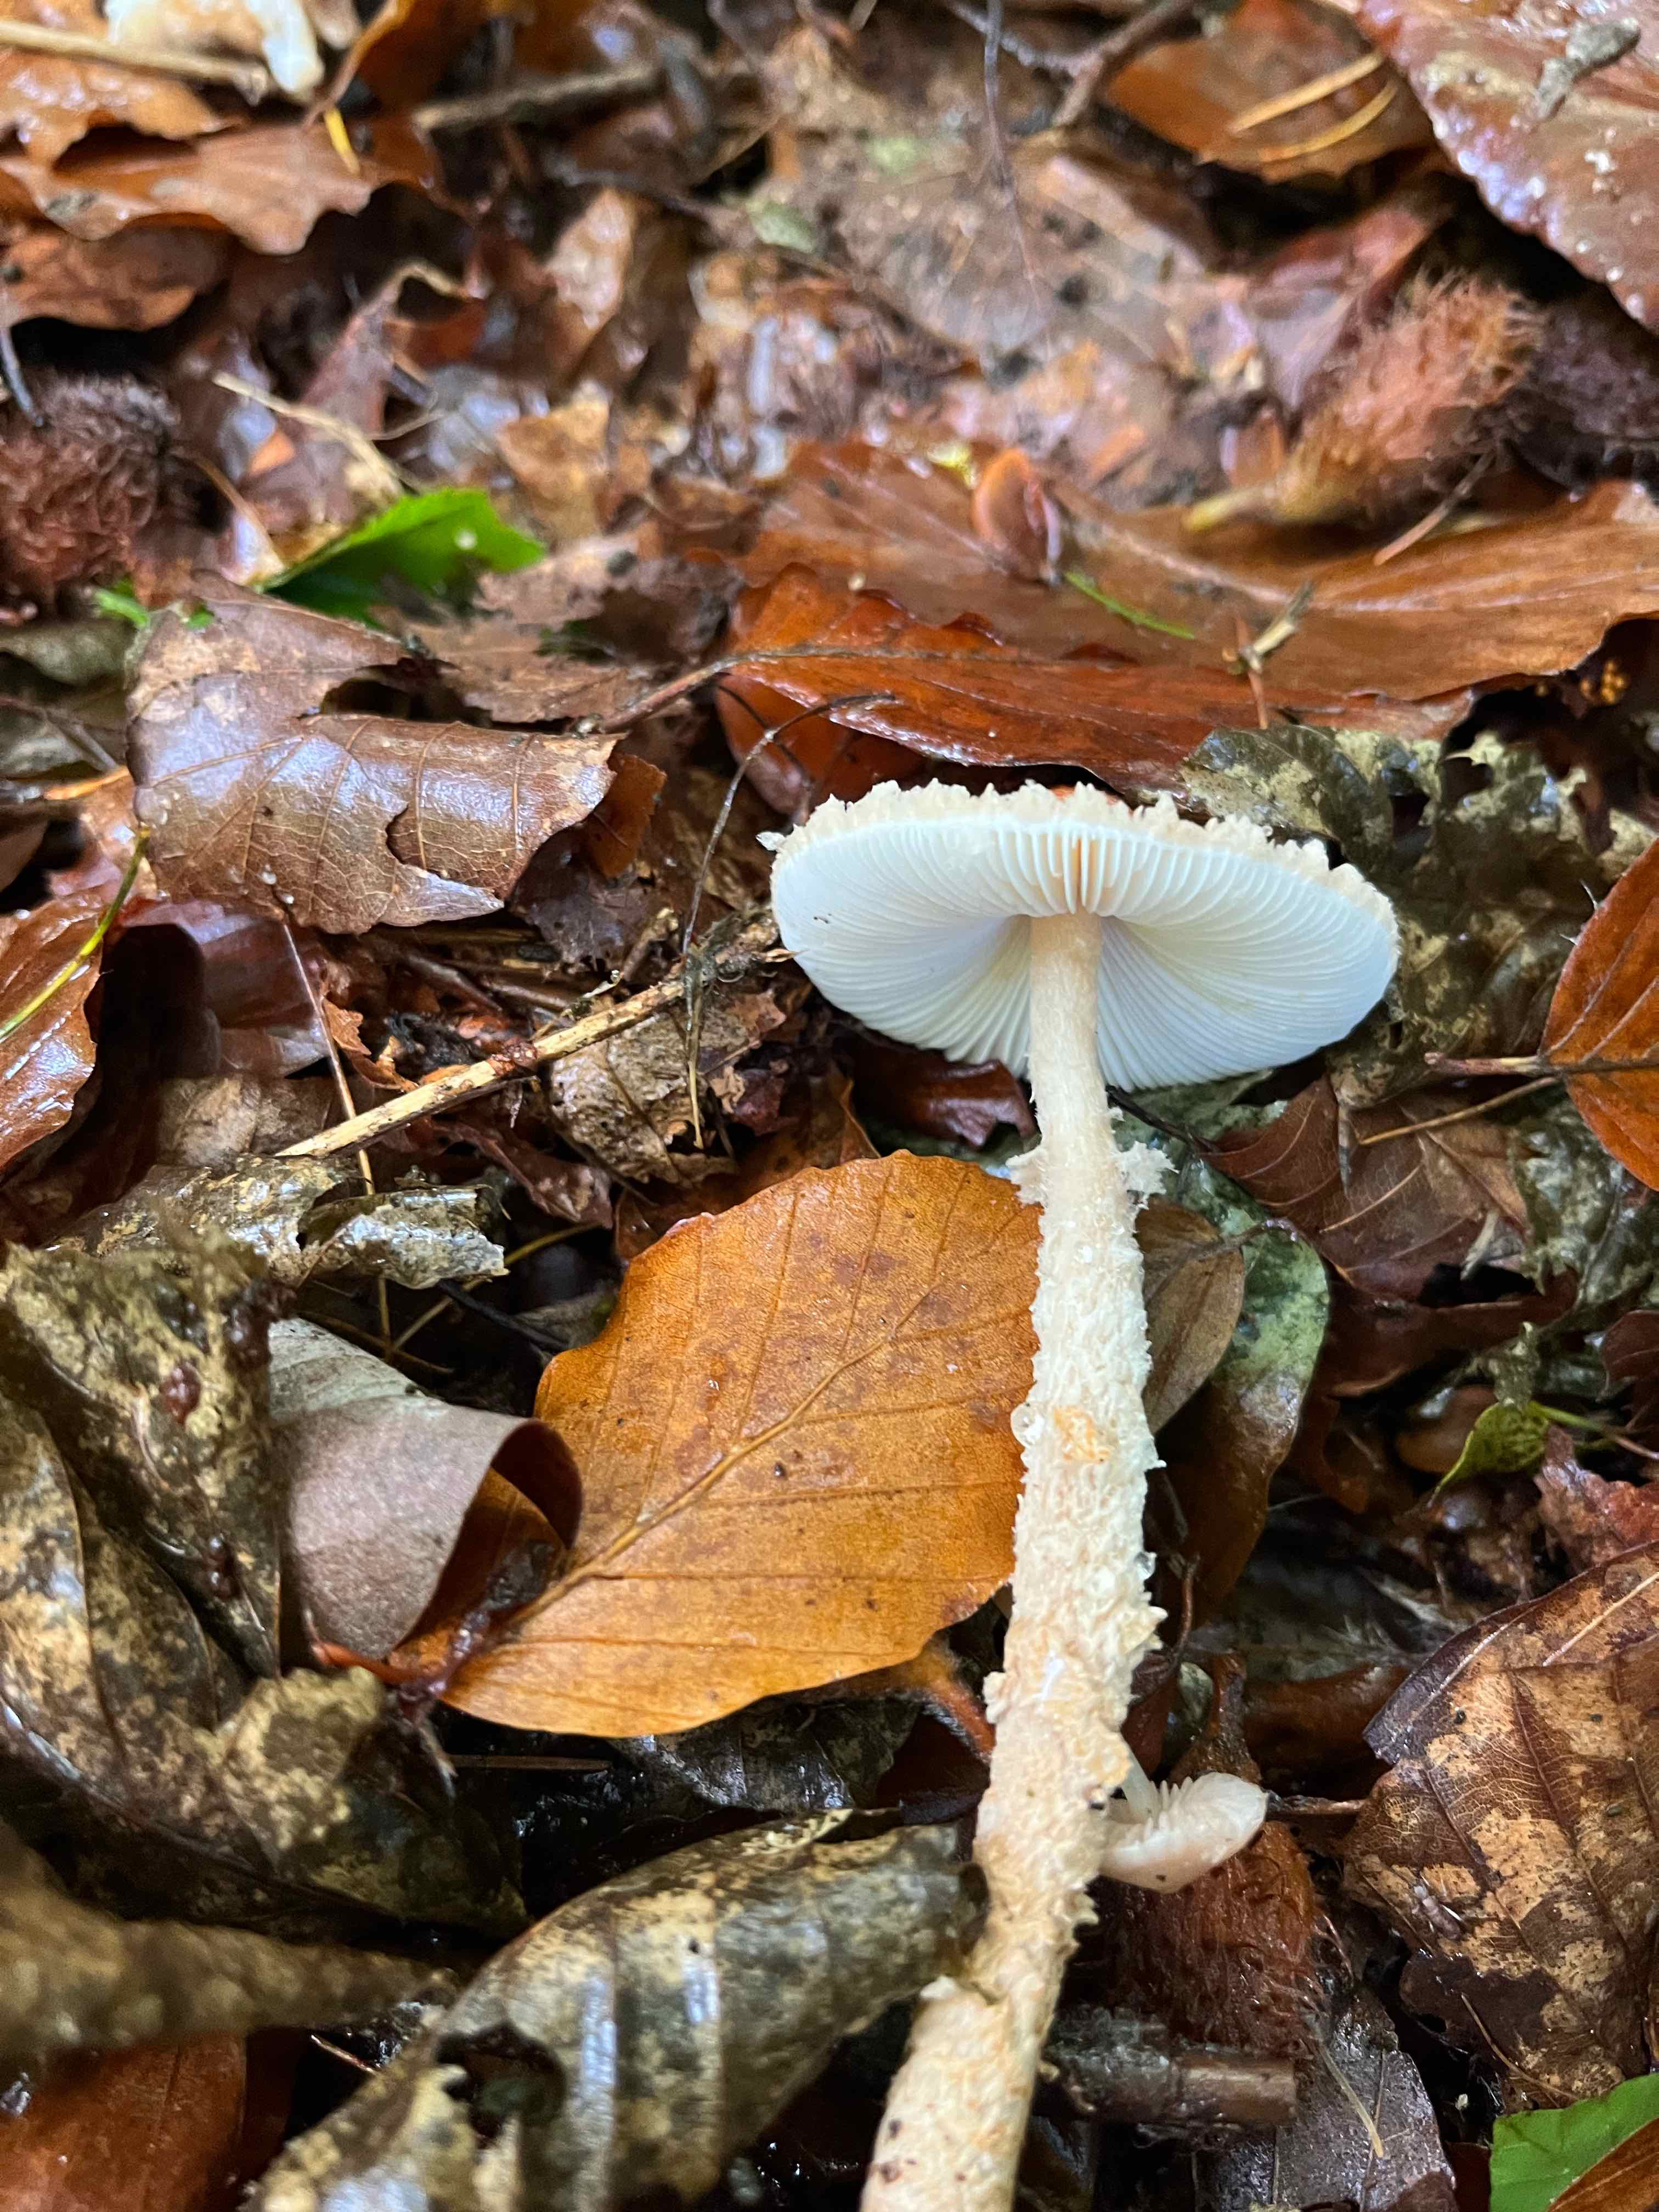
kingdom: Fungi
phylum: Basidiomycota
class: Agaricomycetes
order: Agaricales
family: Agaricaceae
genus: Lepiota
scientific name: Lepiota magnispora
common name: gulfnugget parasolhat
